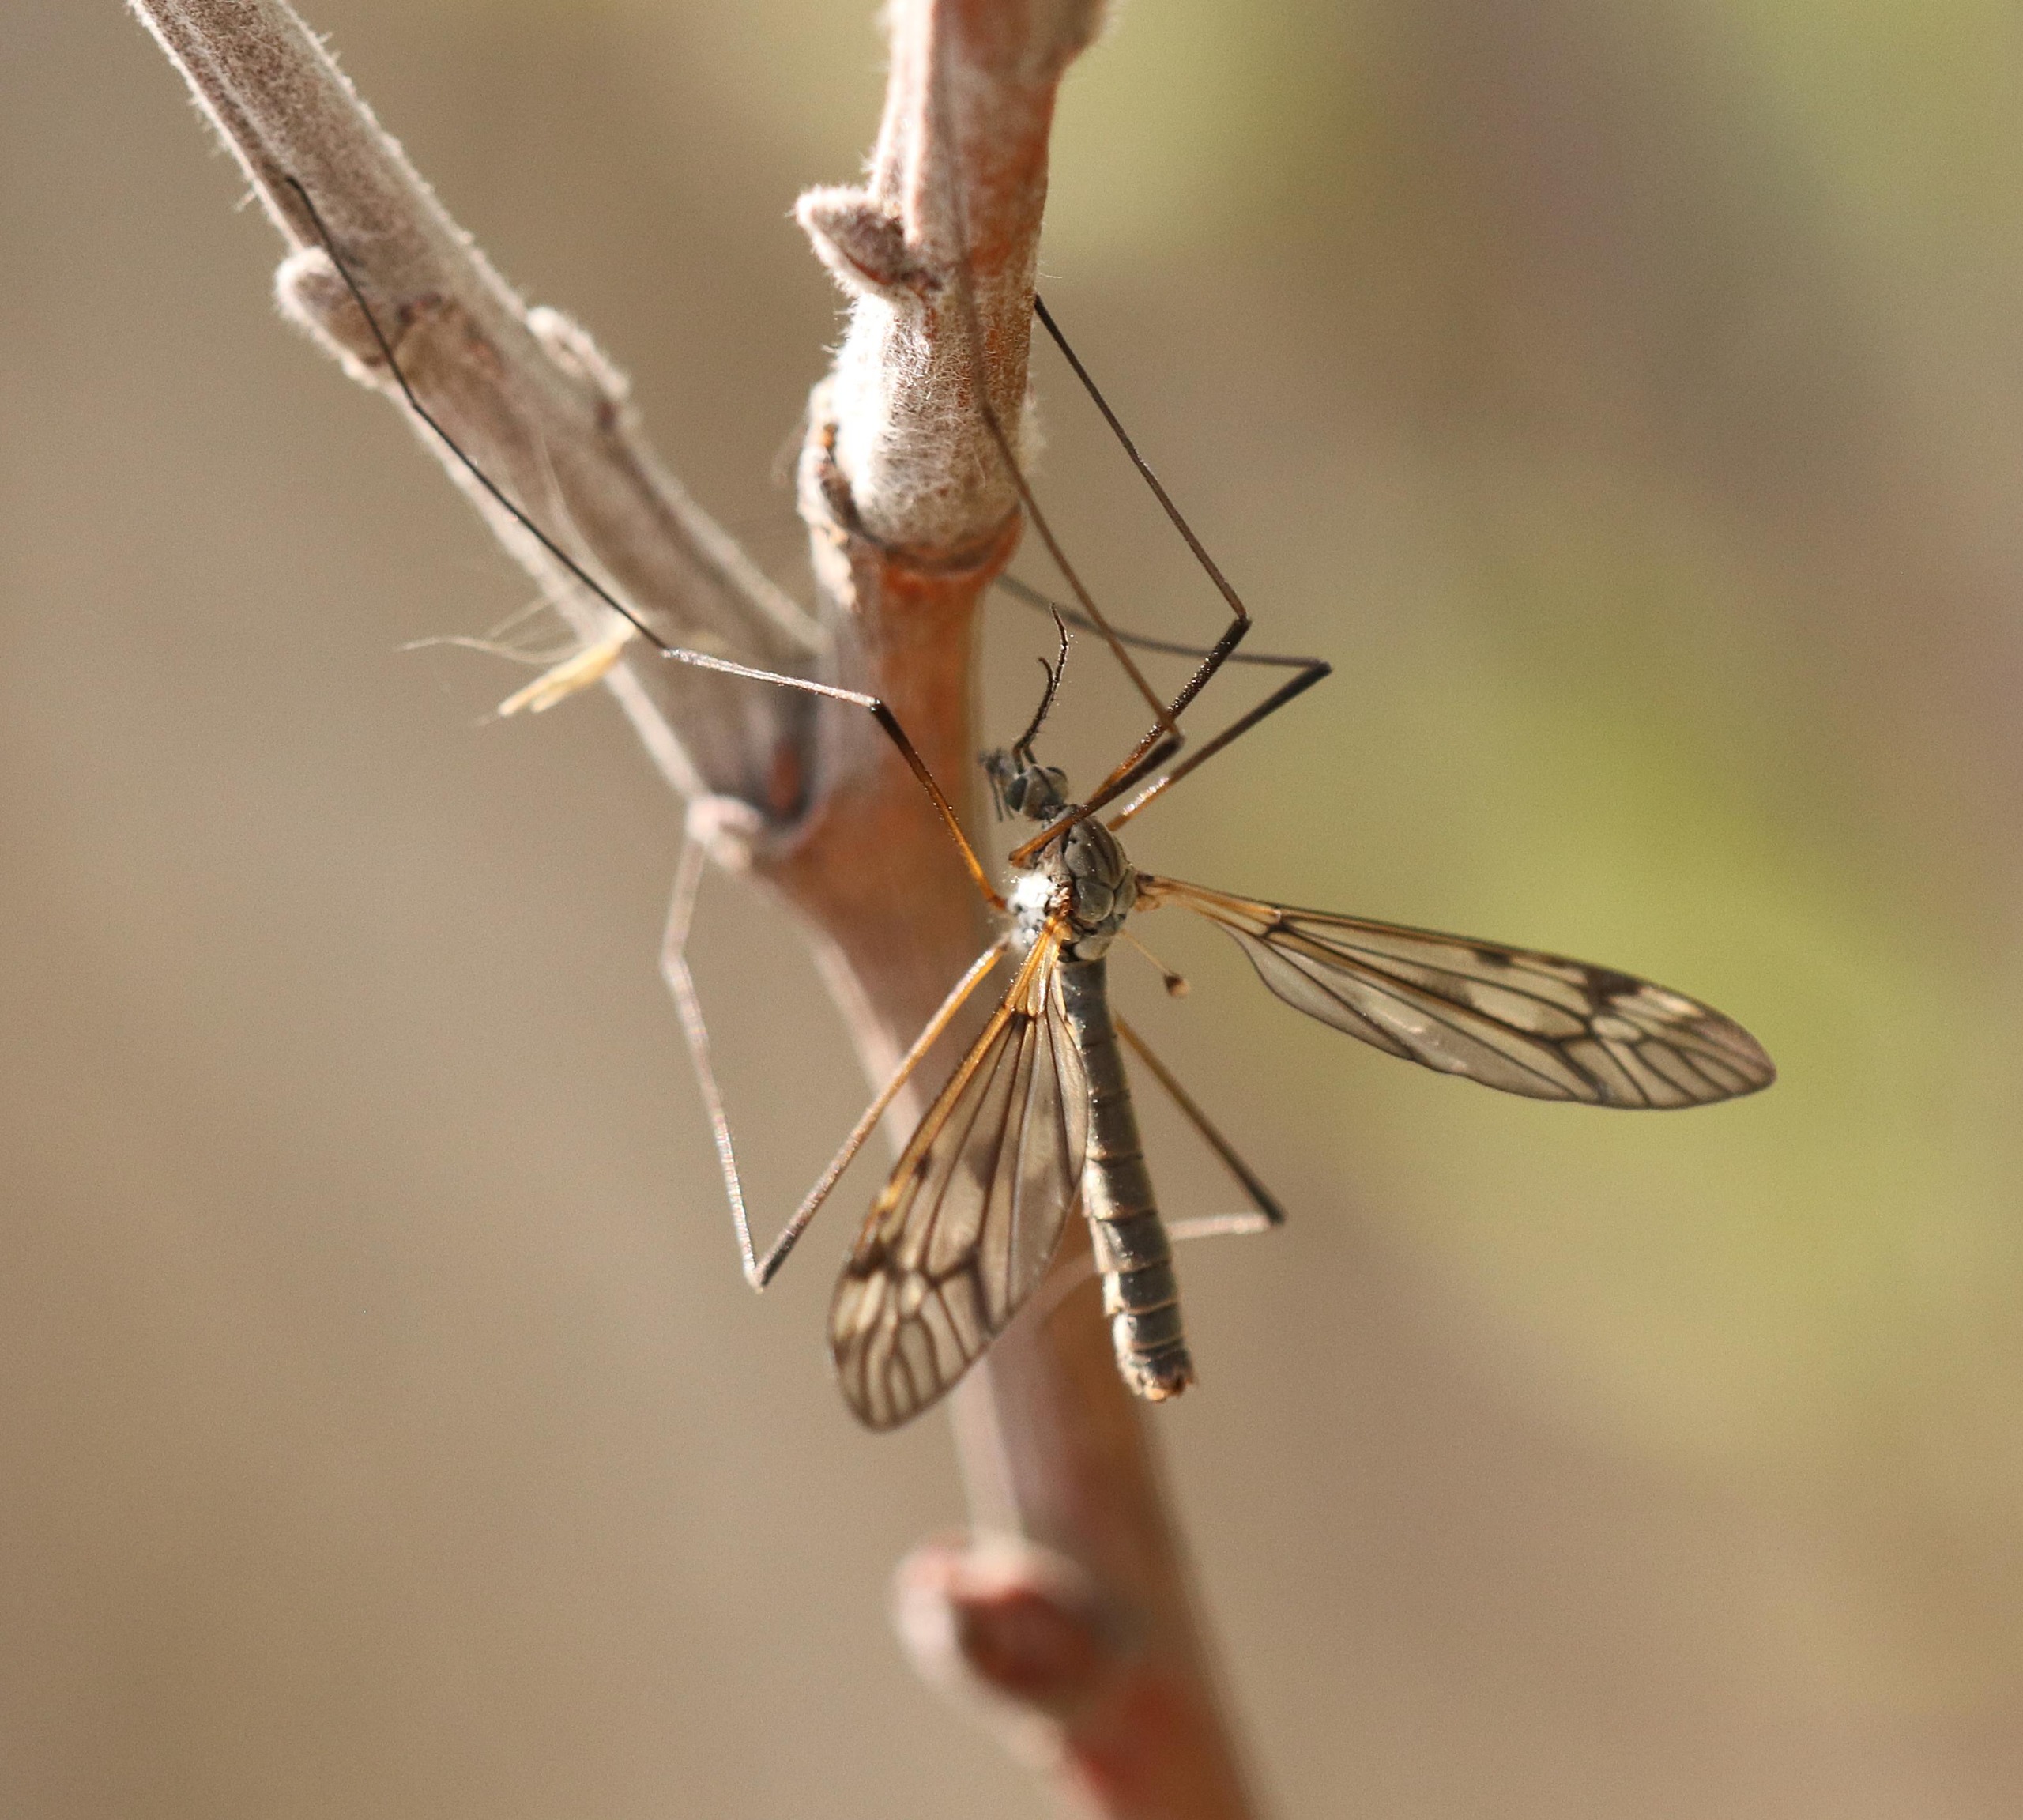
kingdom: Animalia
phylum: Arthropoda
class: Insecta
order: Diptera
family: Tipulidae
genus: Tipula
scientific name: Tipula varipennis
